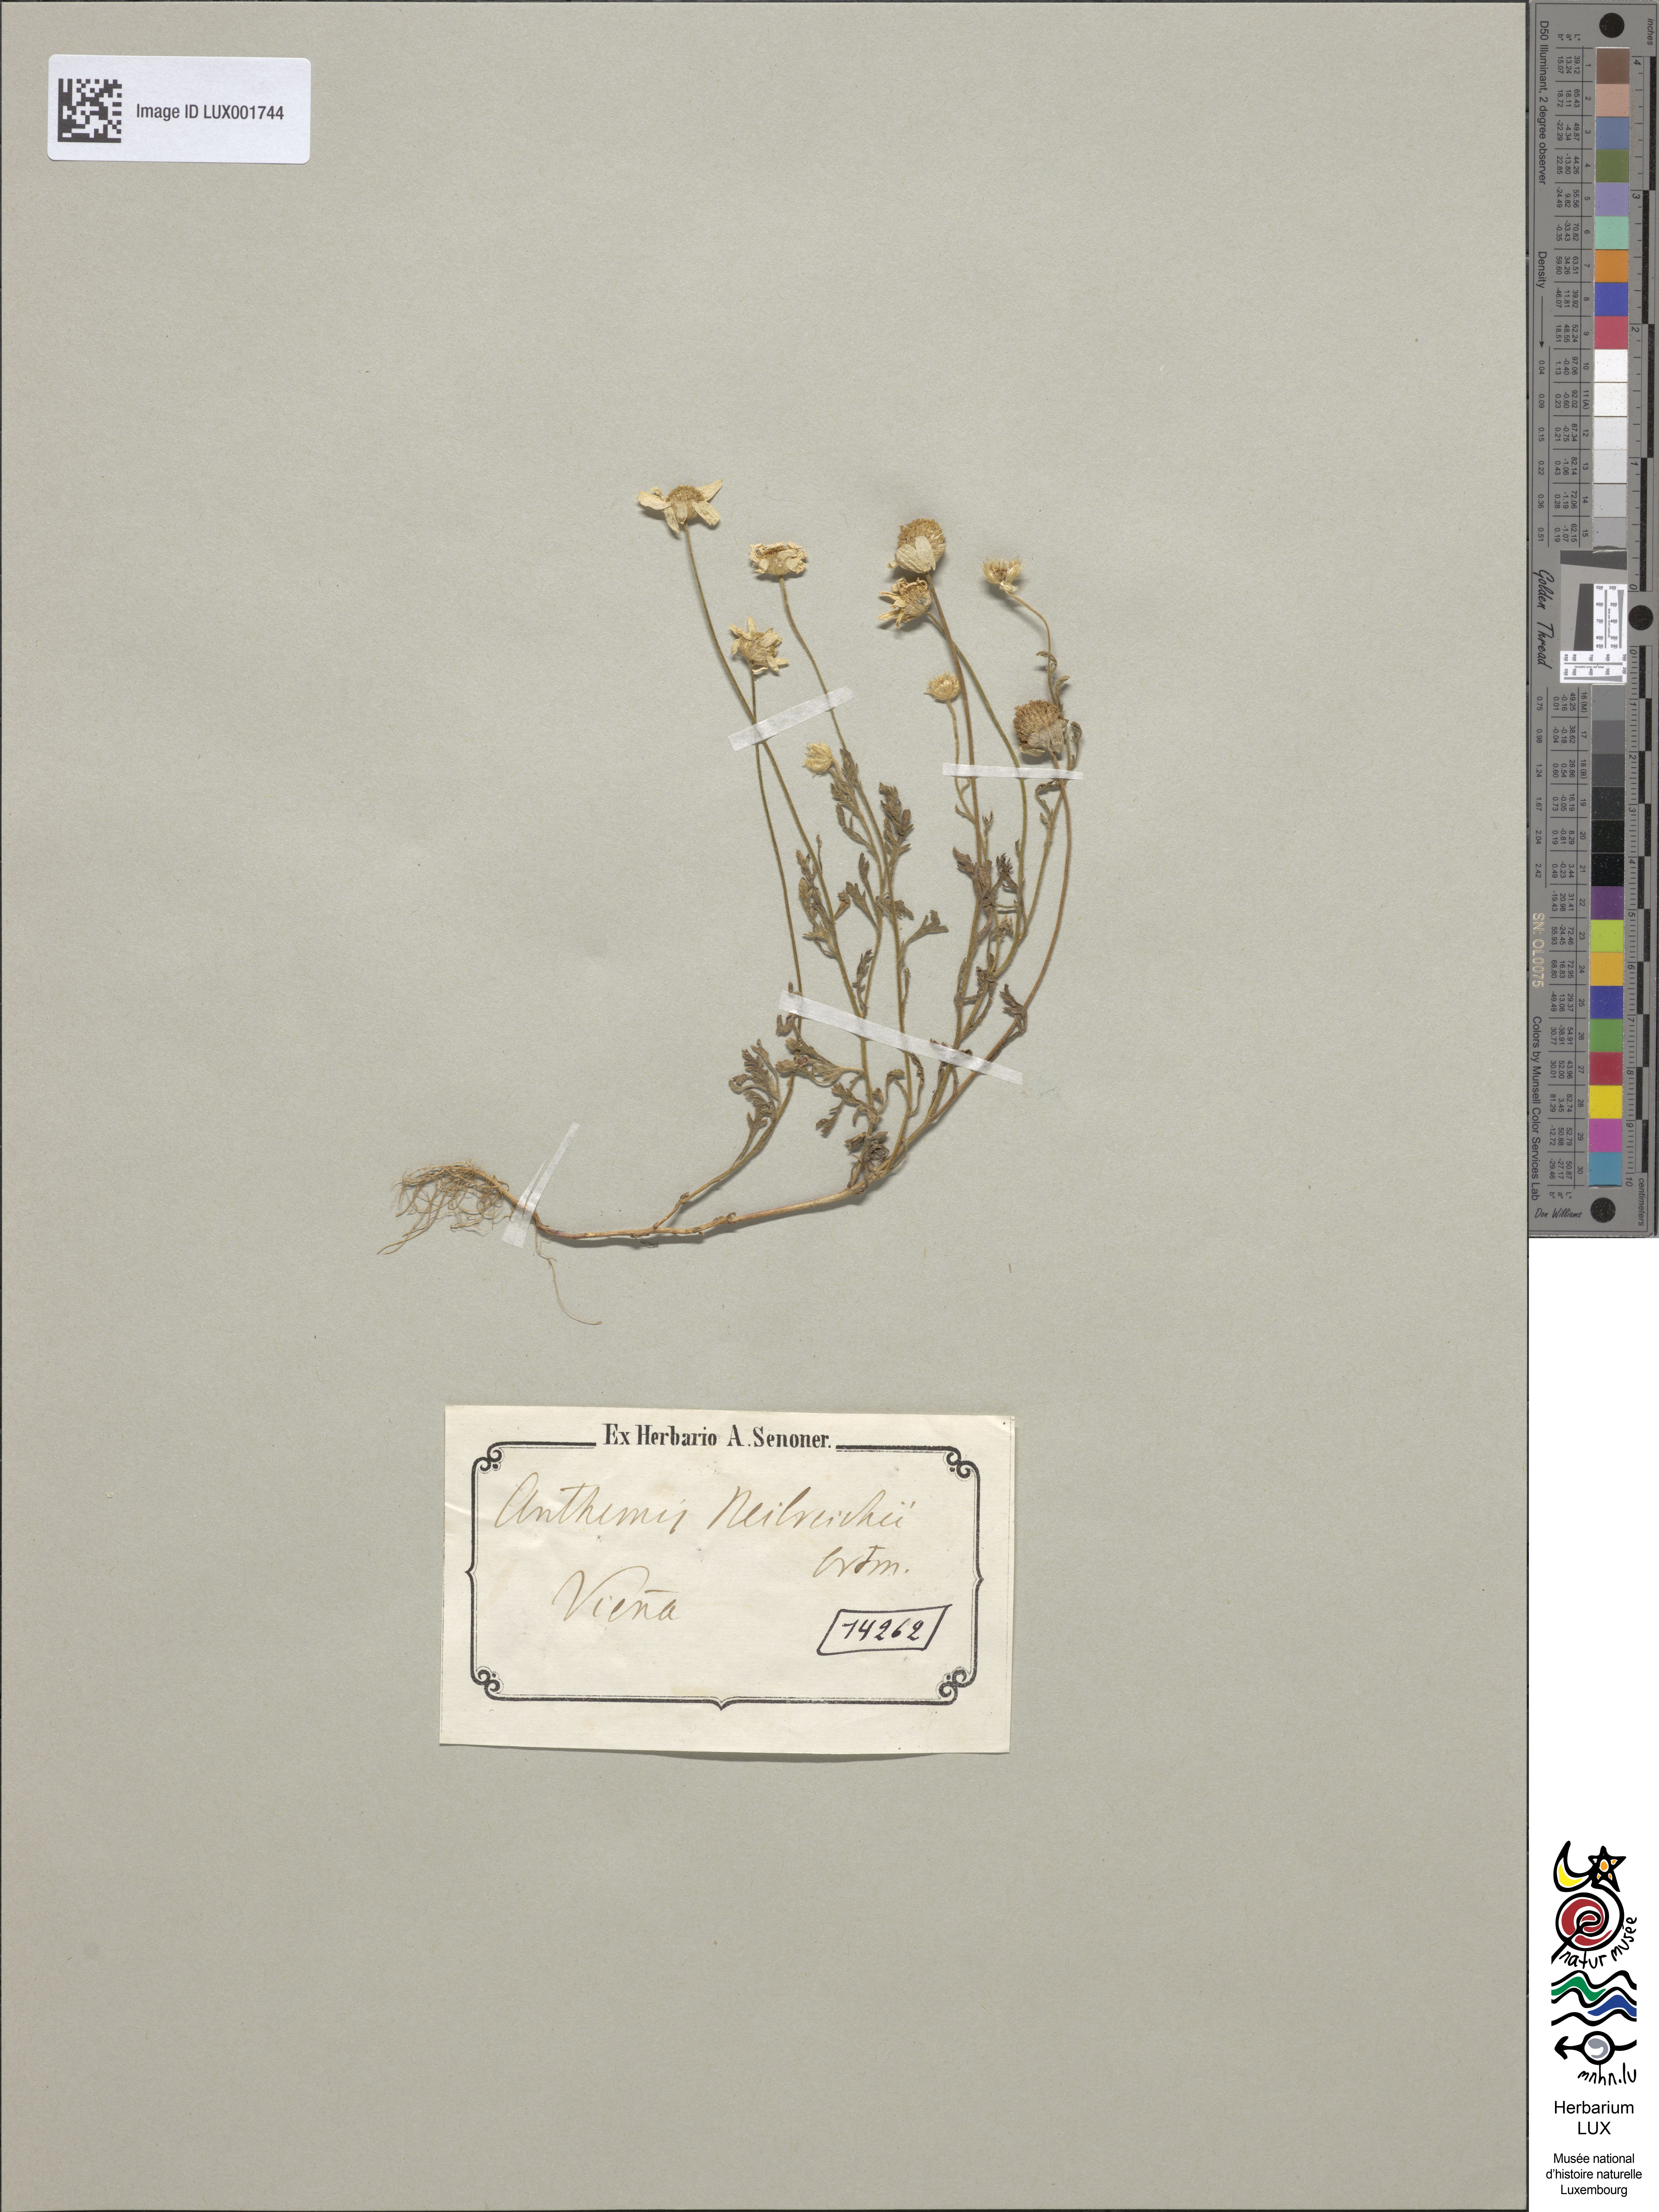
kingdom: Plantae
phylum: Tracheophyta
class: Magnoliopsida
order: Asterales
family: Asteraceae
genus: Anthemis
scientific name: Anthemis ruthenica
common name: Eastern chamomile
